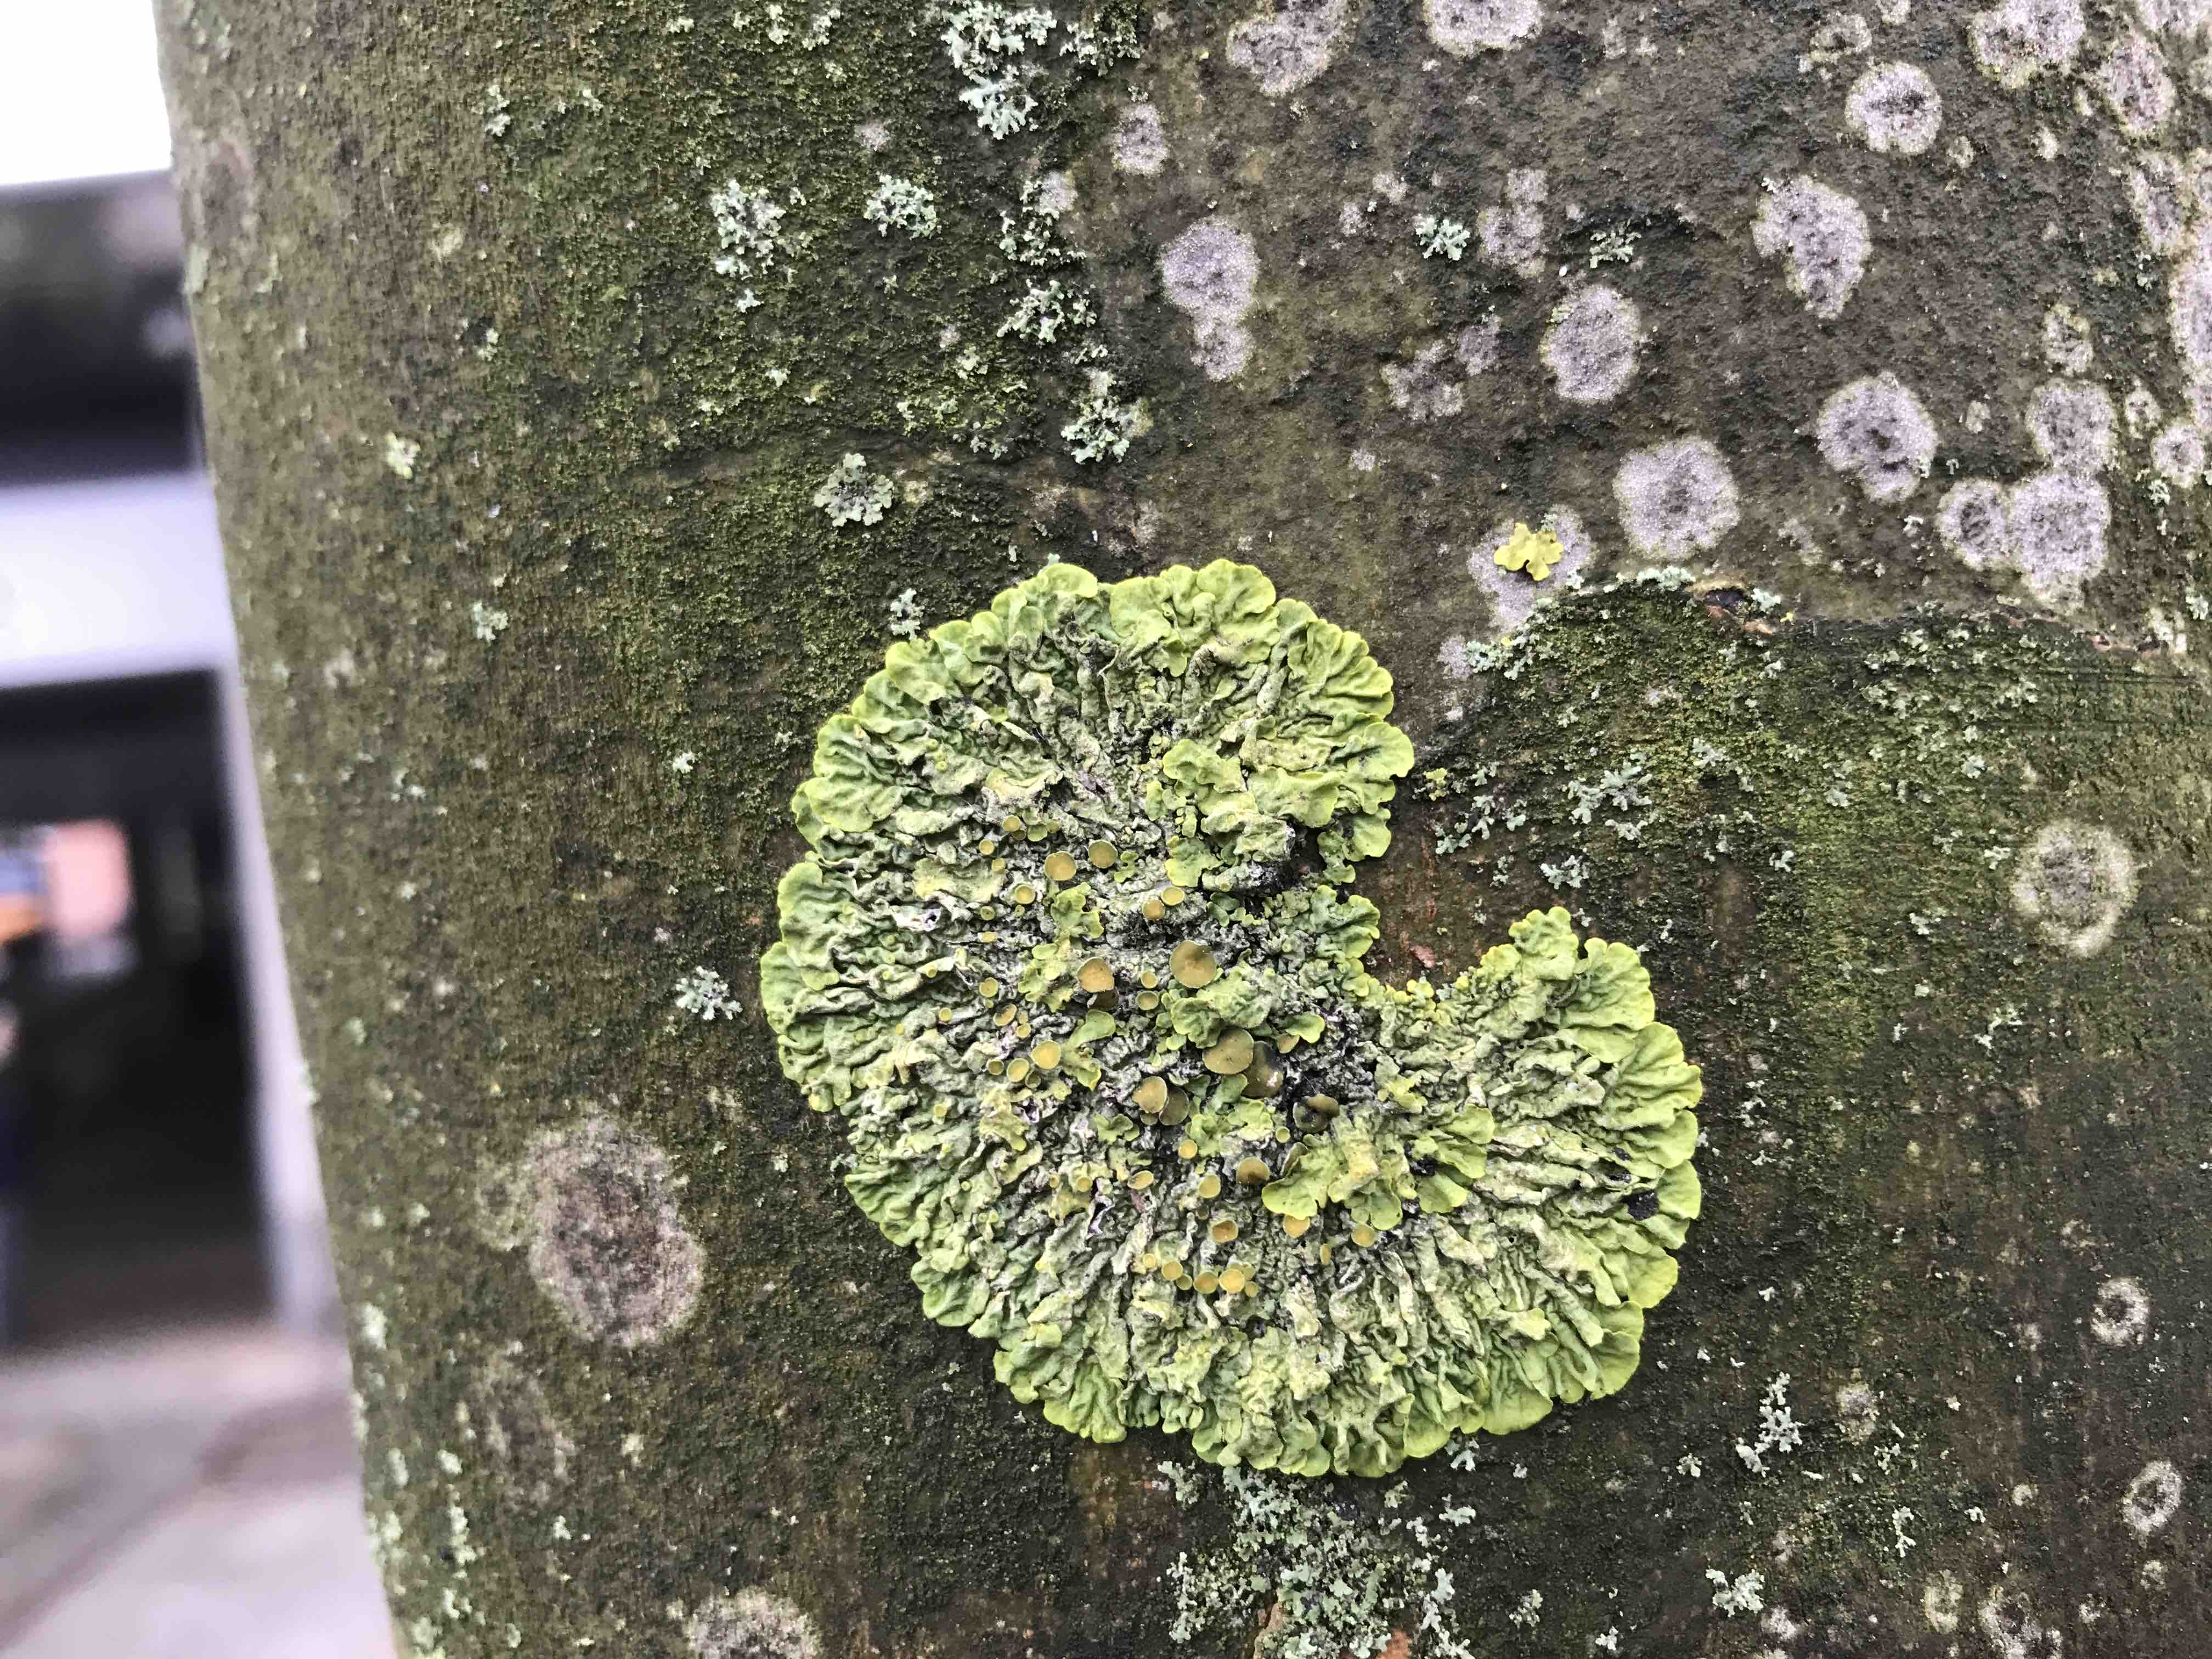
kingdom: Fungi
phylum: Ascomycota
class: Lecanoromycetes
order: Teloschistales
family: Teloschistaceae
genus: Xanthoria
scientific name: Xanthoria parietina
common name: almindelig væggelav
